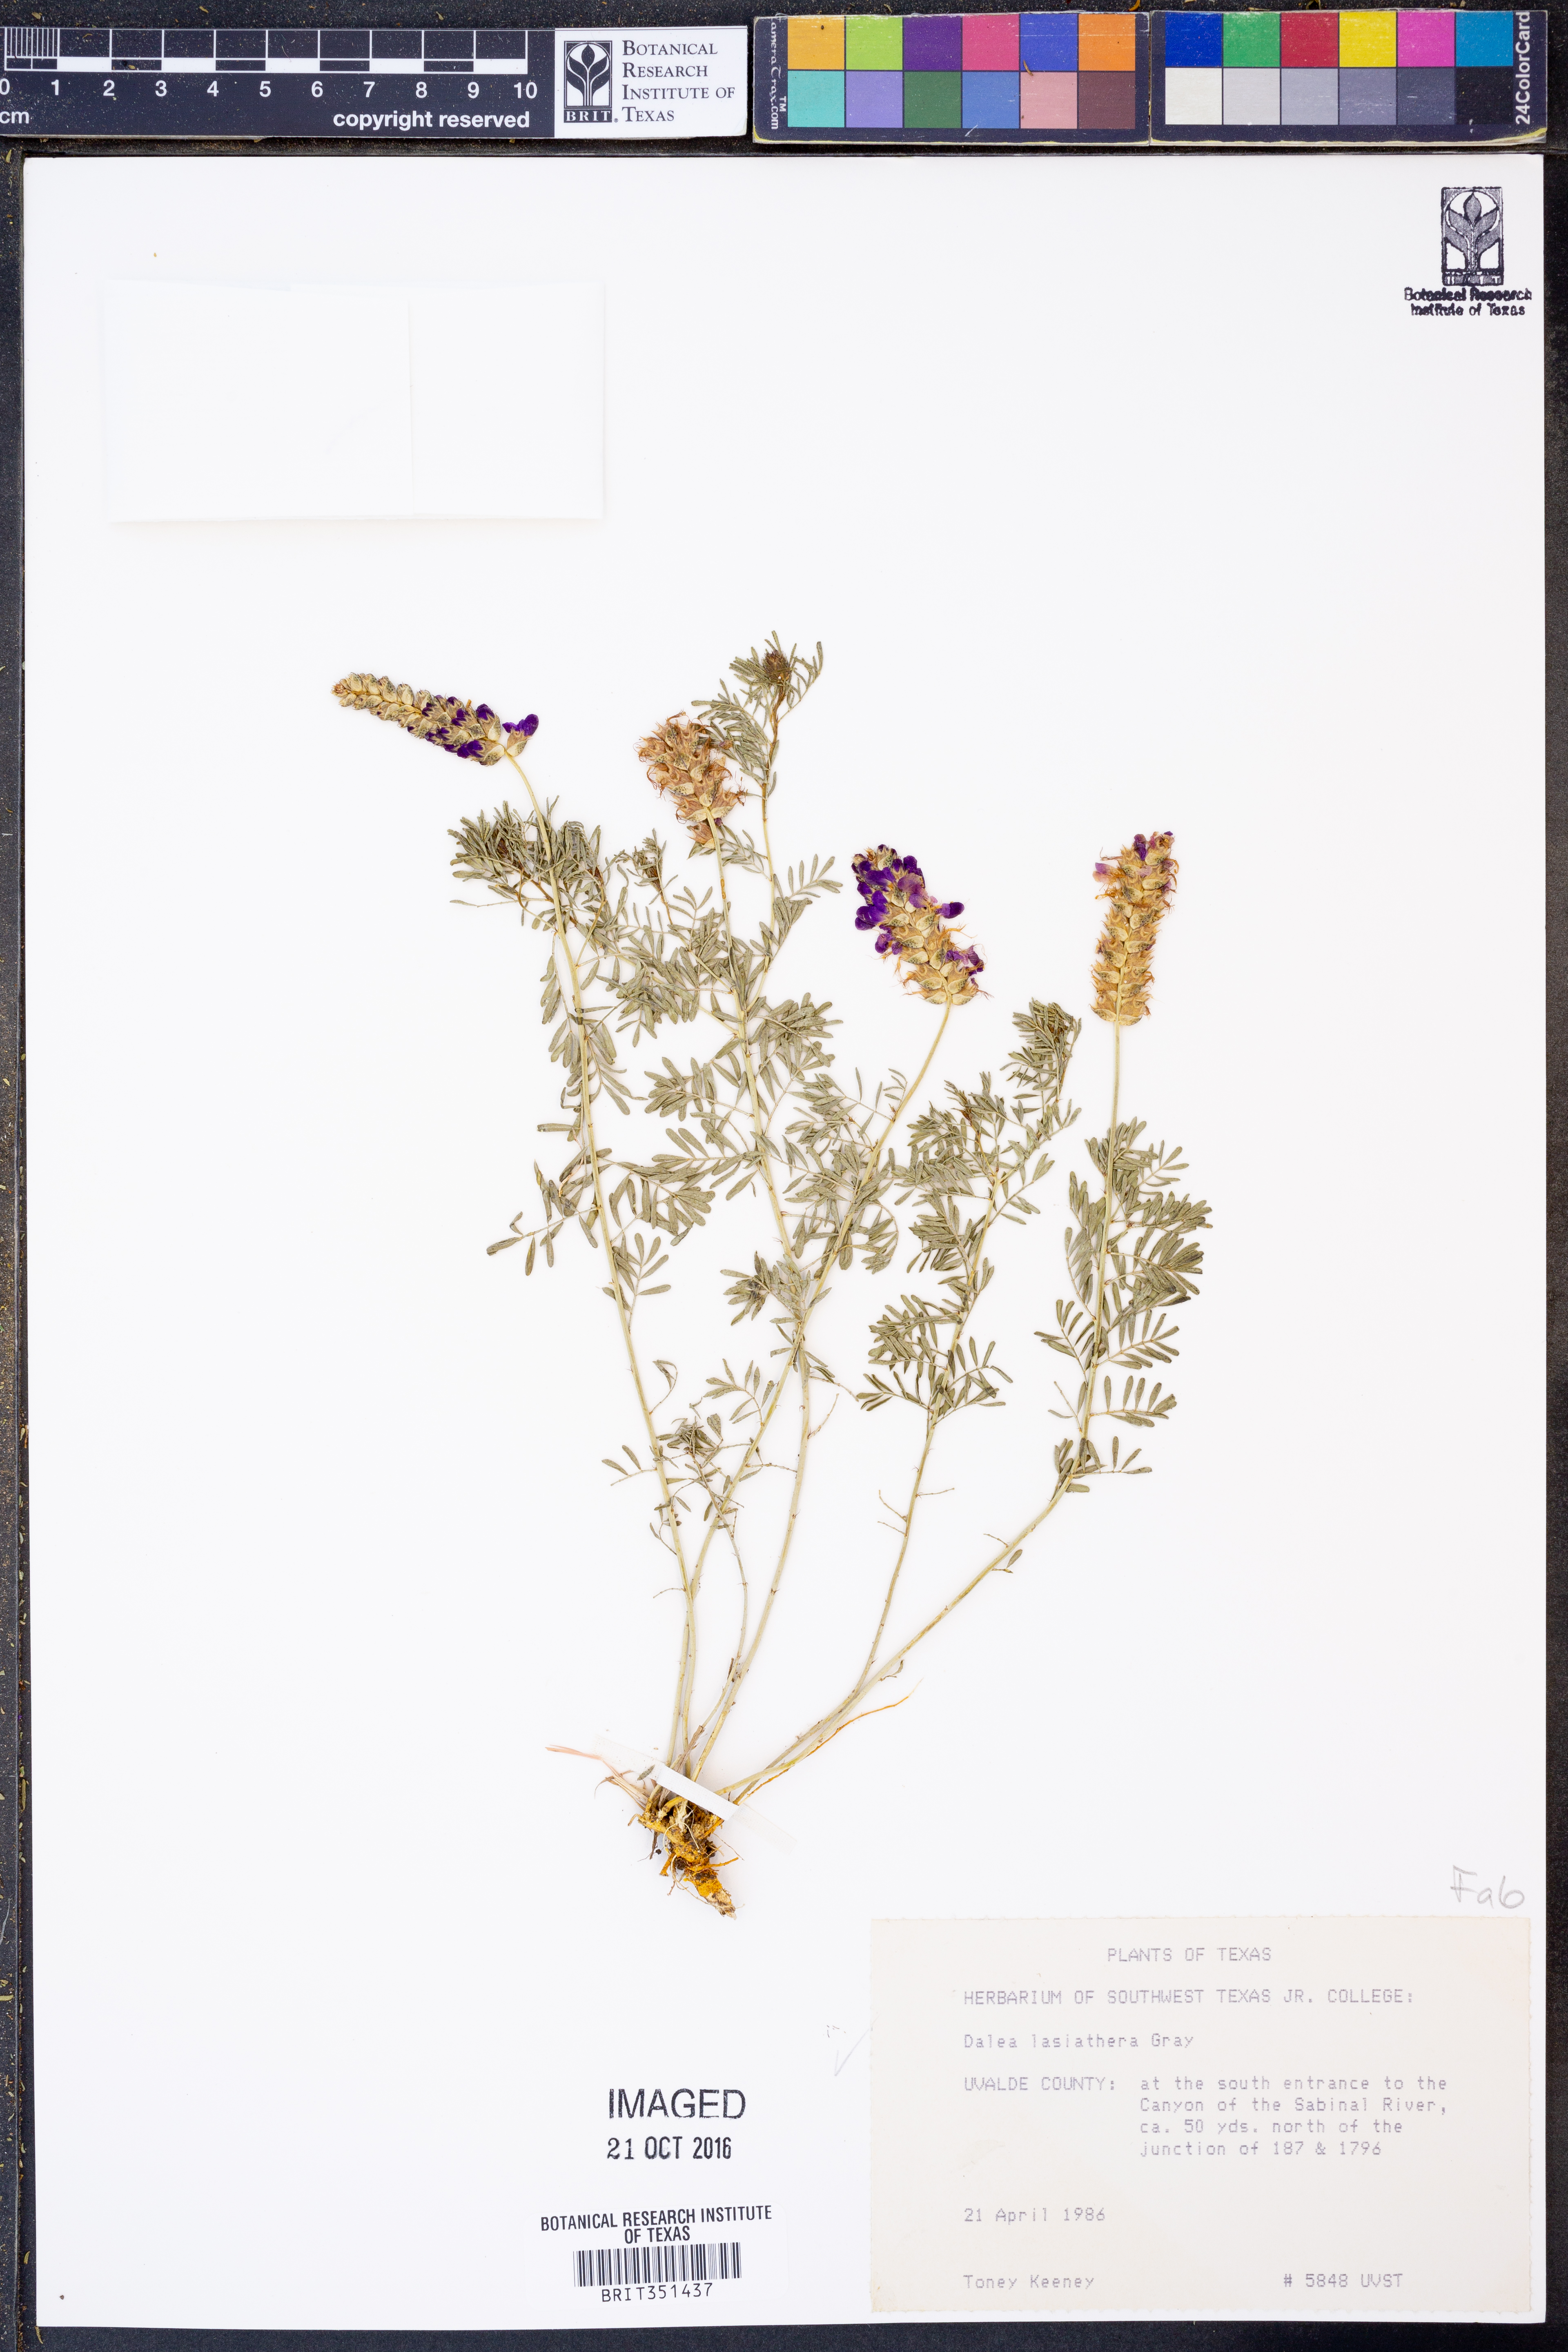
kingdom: Plantae
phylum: Tracheophyta
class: Magnoliopsida
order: Fabales
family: Fabaceae
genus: Dalea
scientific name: Dalea lasiathera
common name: Purple prairie-clover
